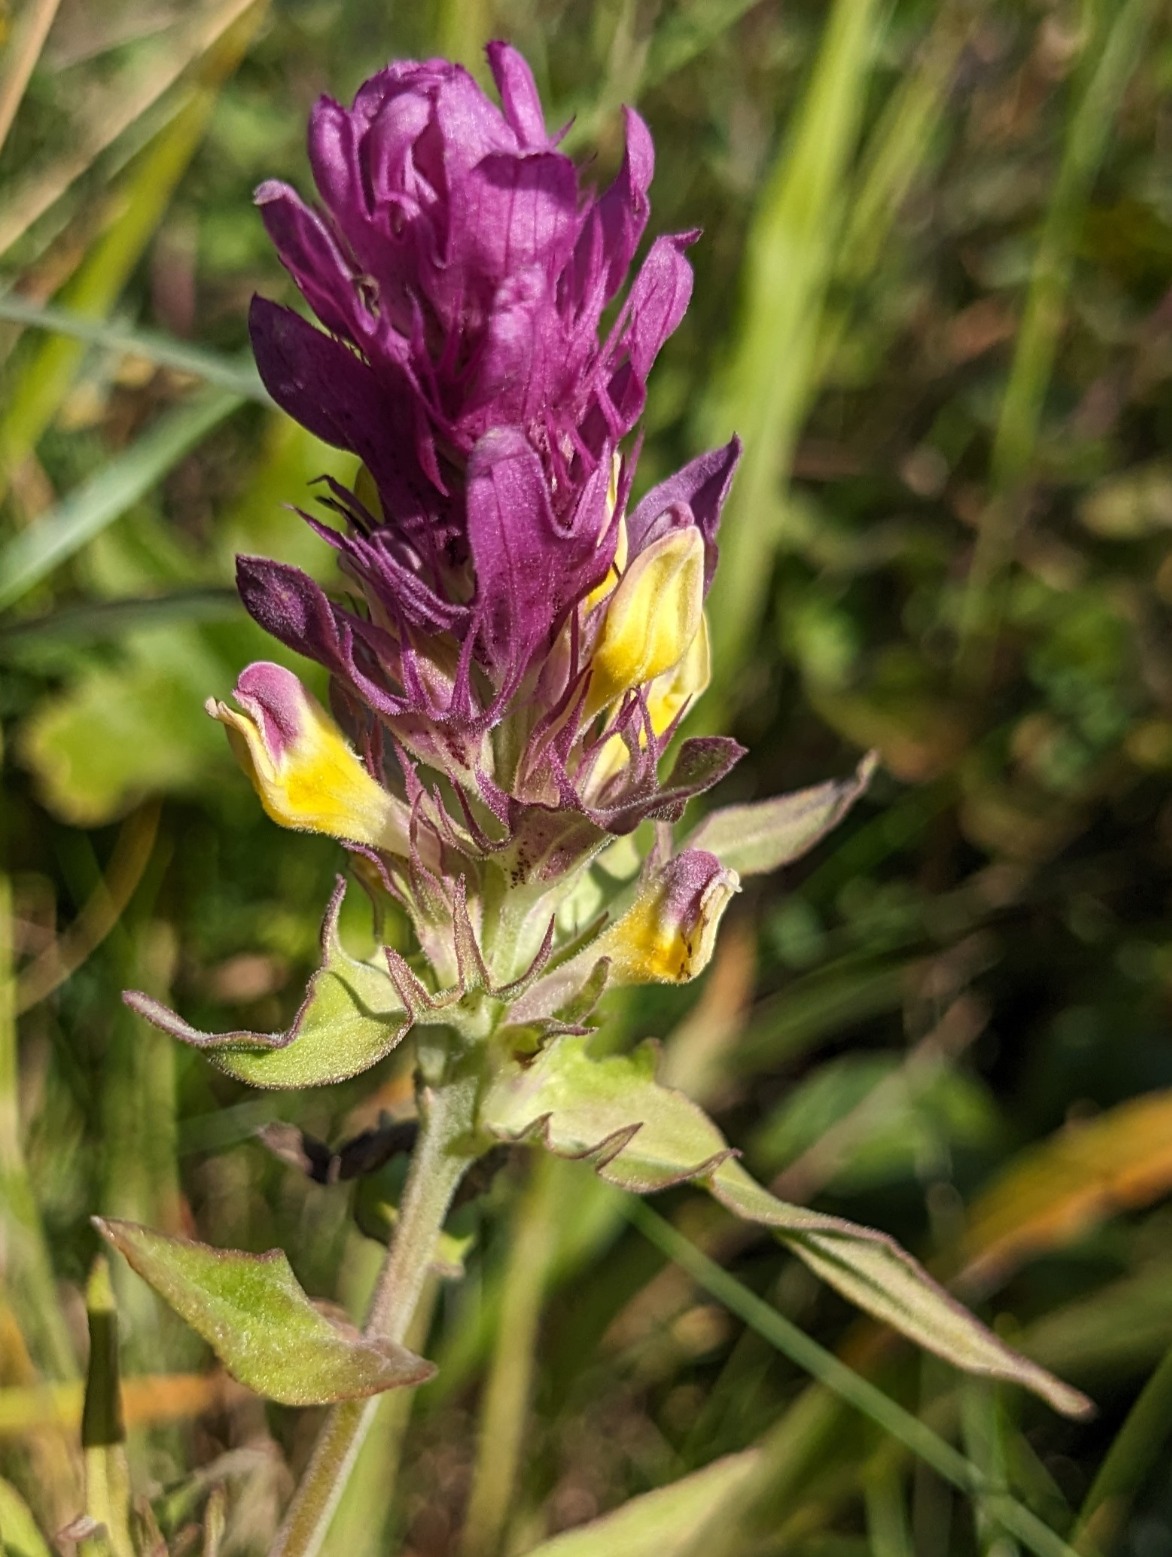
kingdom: Plantae
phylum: Tracheophyta
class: Magnoliopsida
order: Lamiales
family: Orobanchaceae
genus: Melampyrum
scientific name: Melampyrum arvense
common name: Ager-kohvede
